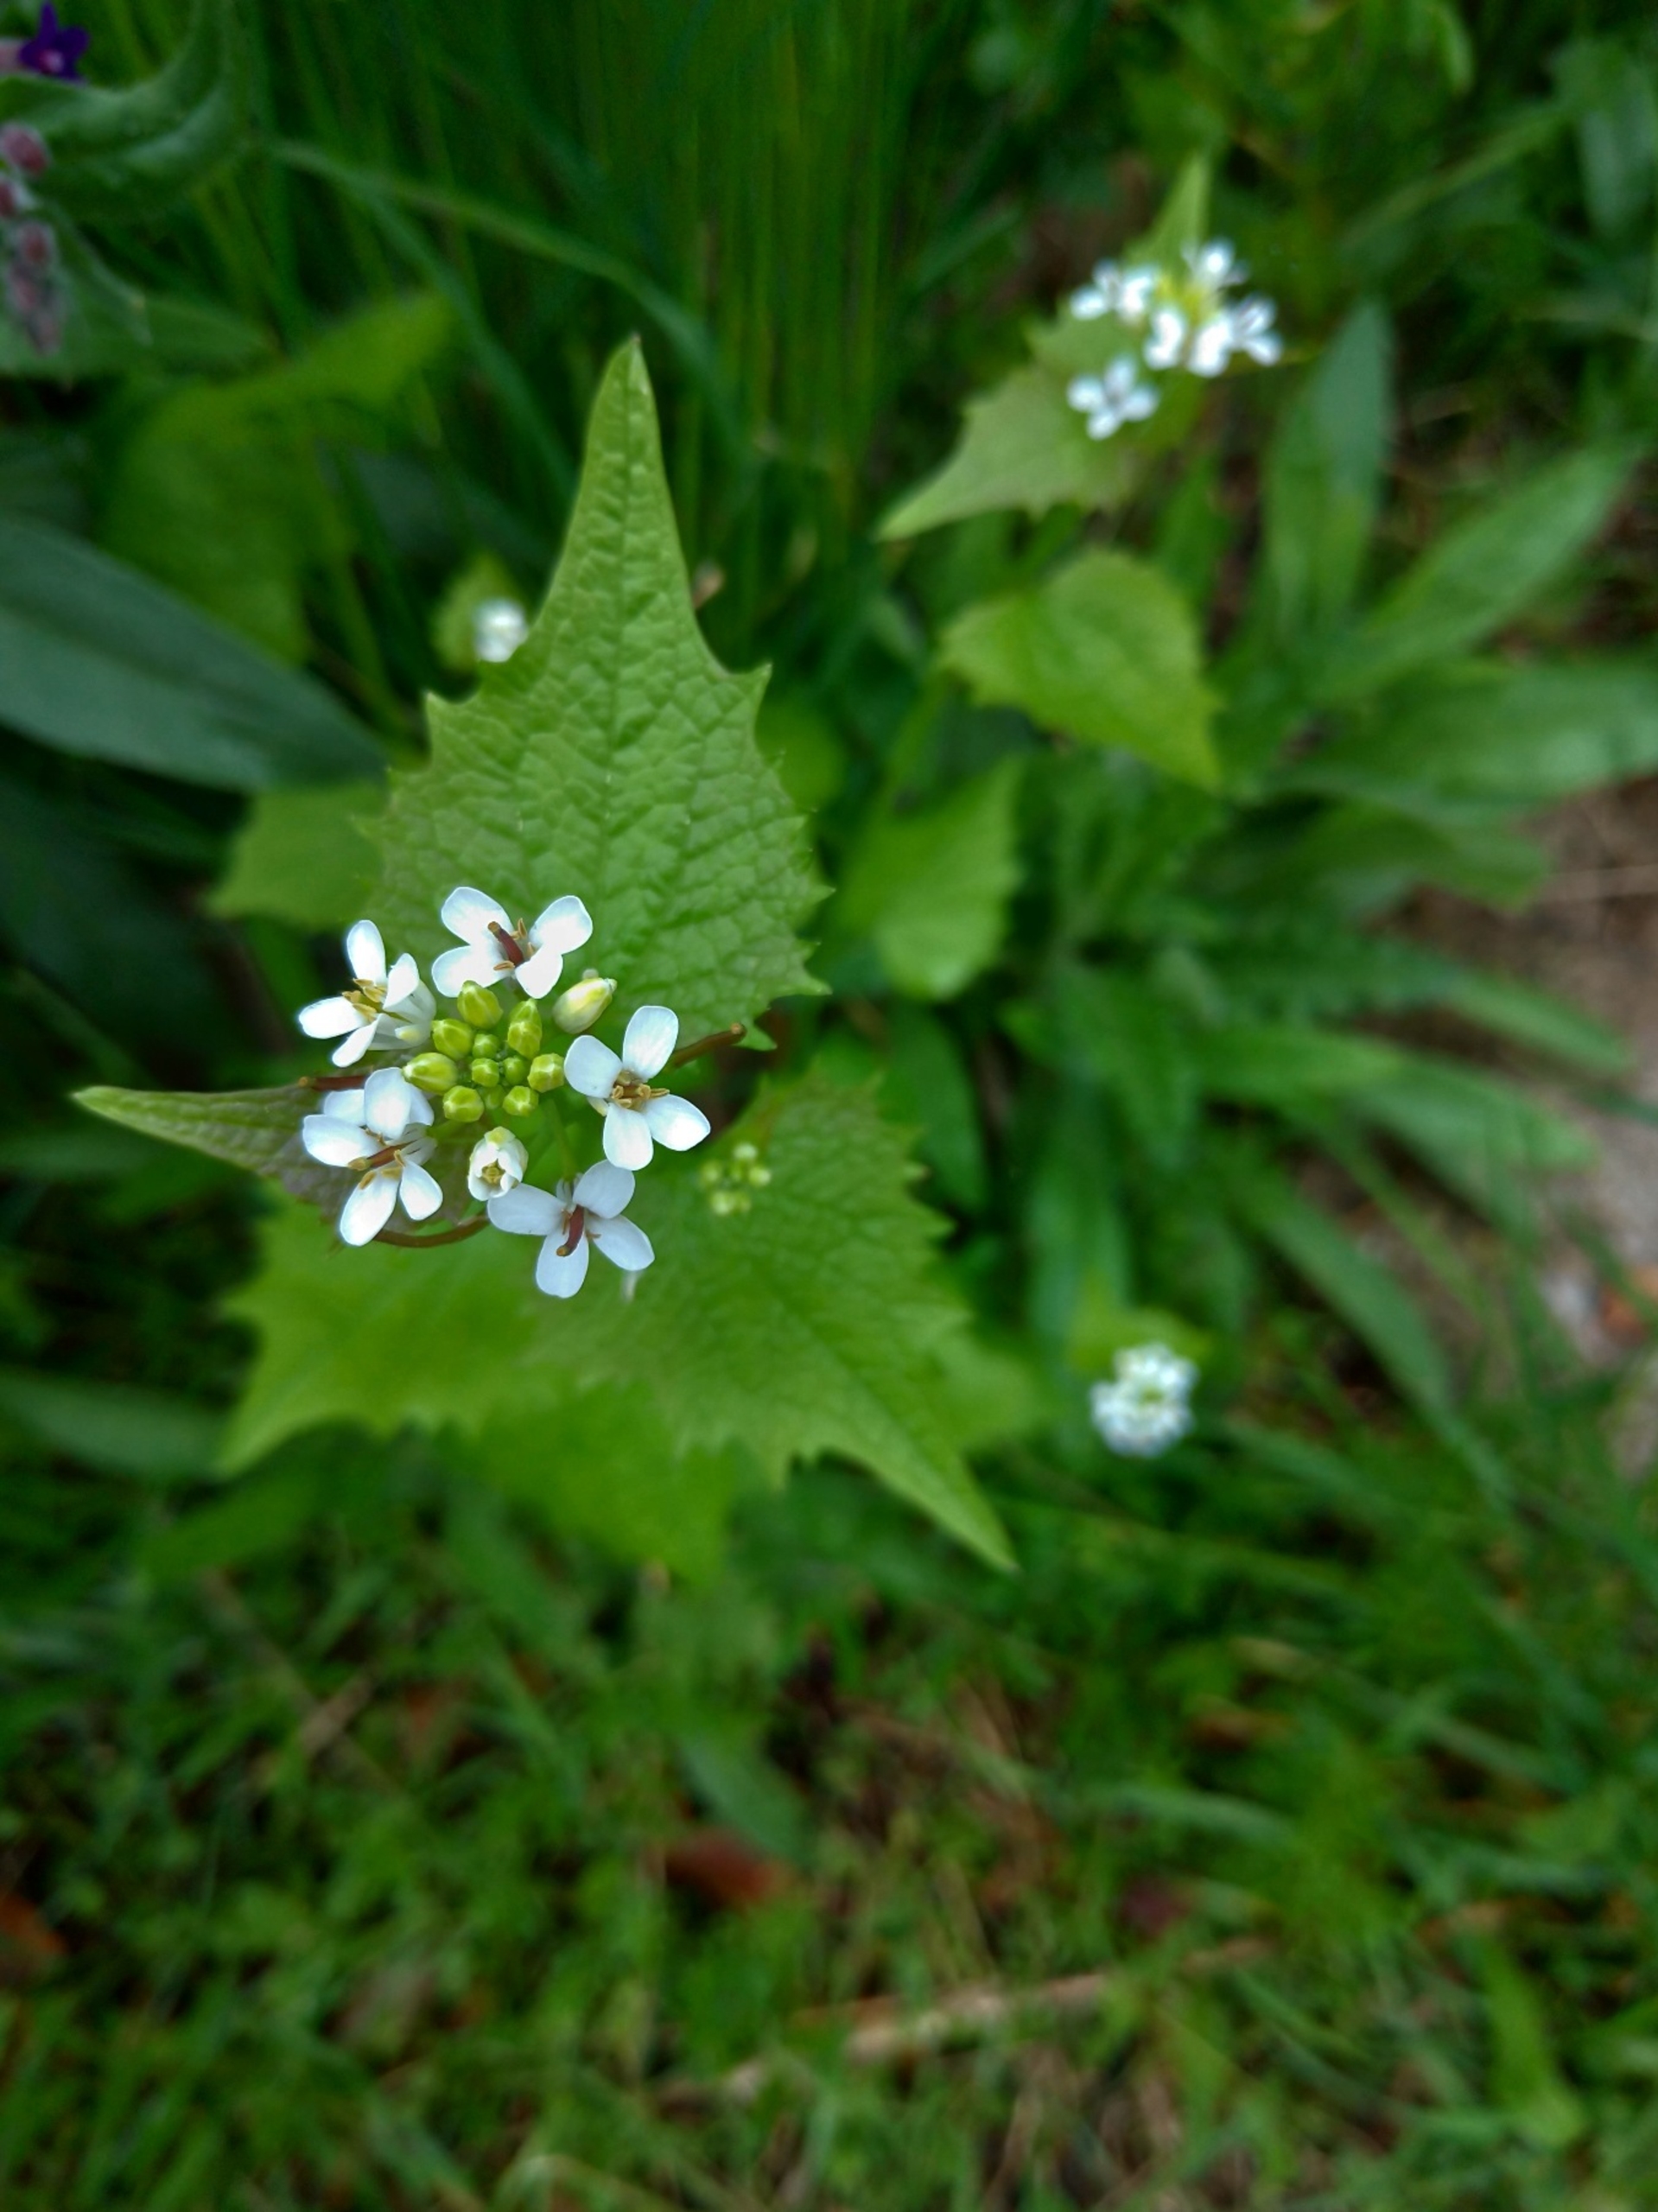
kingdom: Plantae
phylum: Tracheophyta
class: Magnoliopsida
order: Brassicales
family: Brassicaceae
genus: Alliaria
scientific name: Alliaria petiolata
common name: Løgkarse
